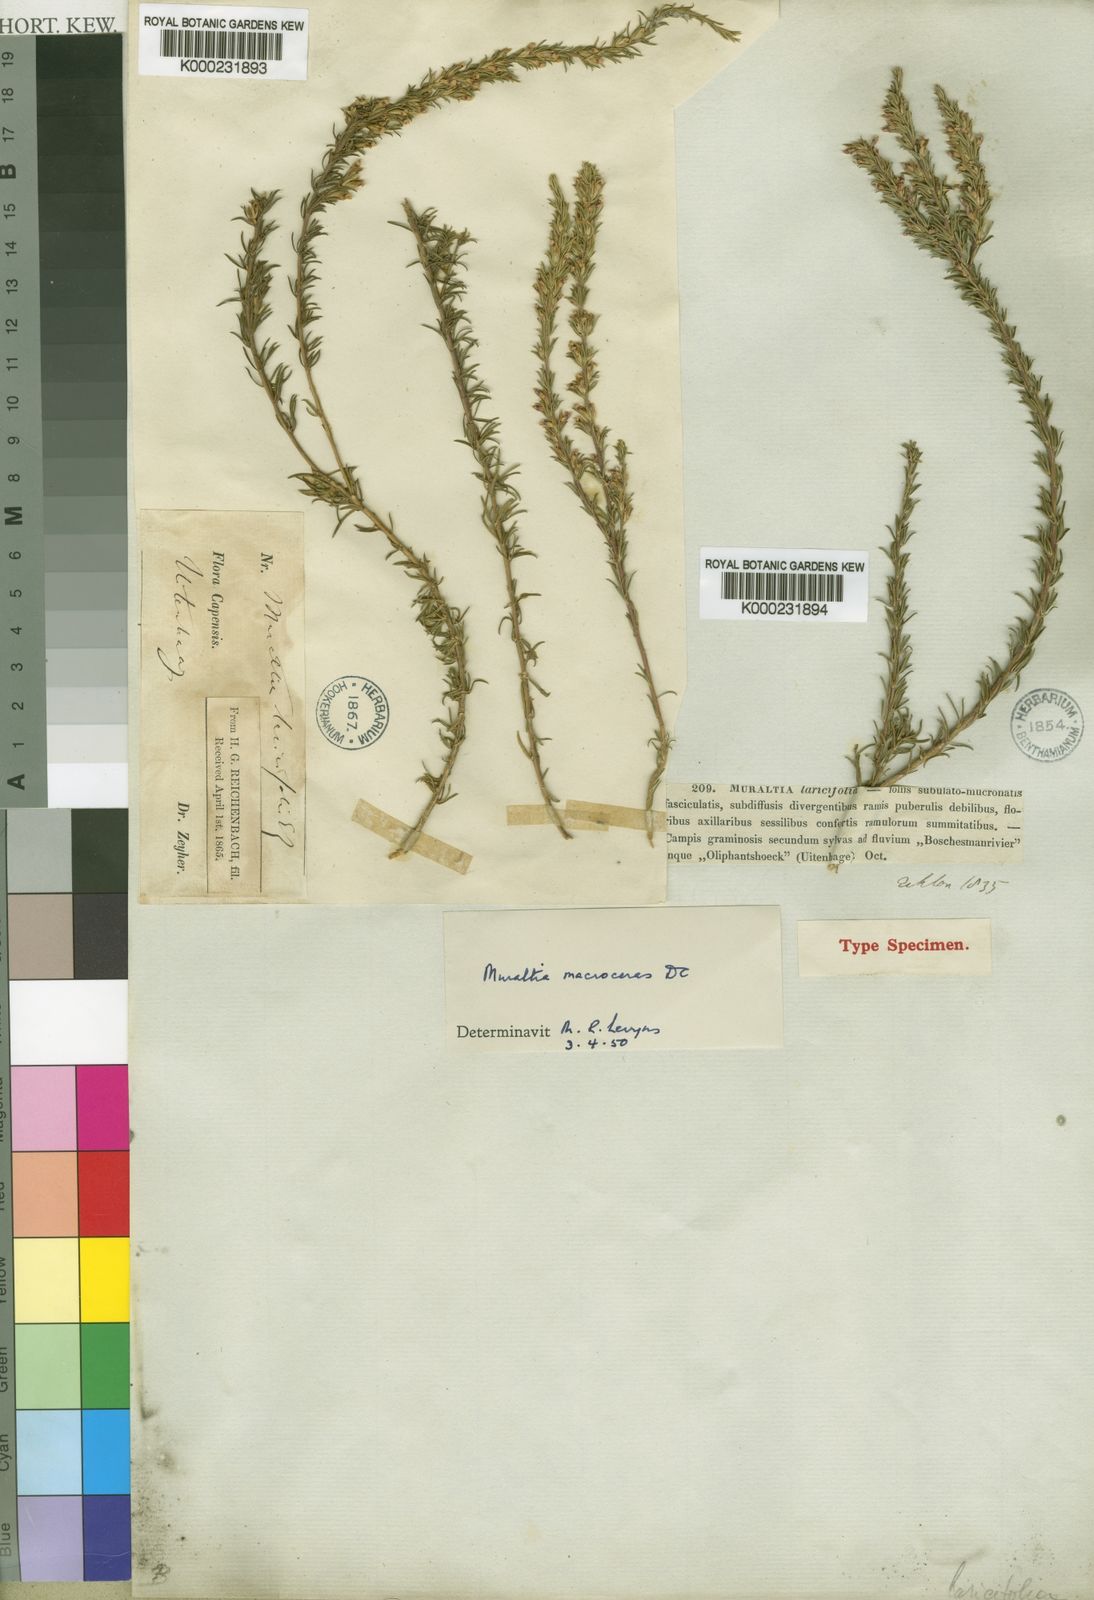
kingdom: Plantae
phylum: Tracheophyta
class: Magnoliopsida
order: Fabales
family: Polygalaceae
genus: Muraltia
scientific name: Muraltia macroceras
